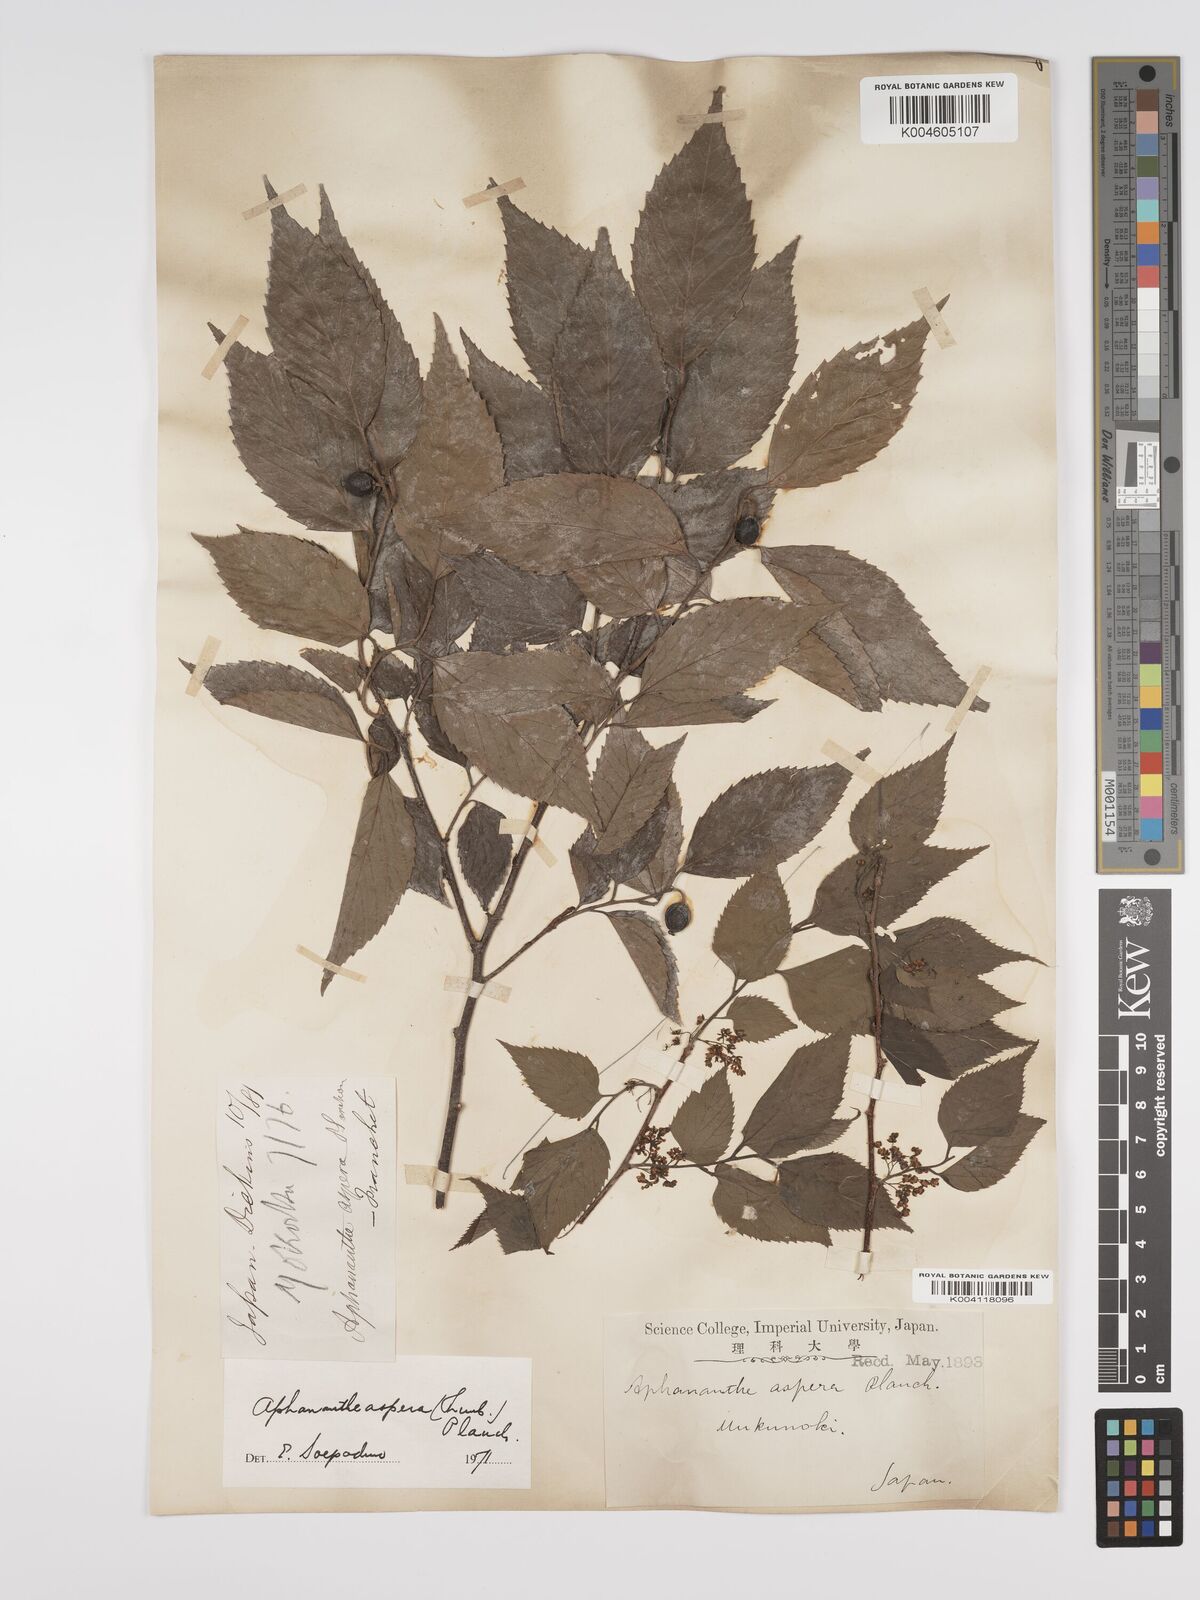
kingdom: Plantae
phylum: Tracheophyta
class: Magnoliopsida
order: Rosales
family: Cannabaceae
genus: Aphananthe
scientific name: Aphananthe aspera
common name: Mukutree
